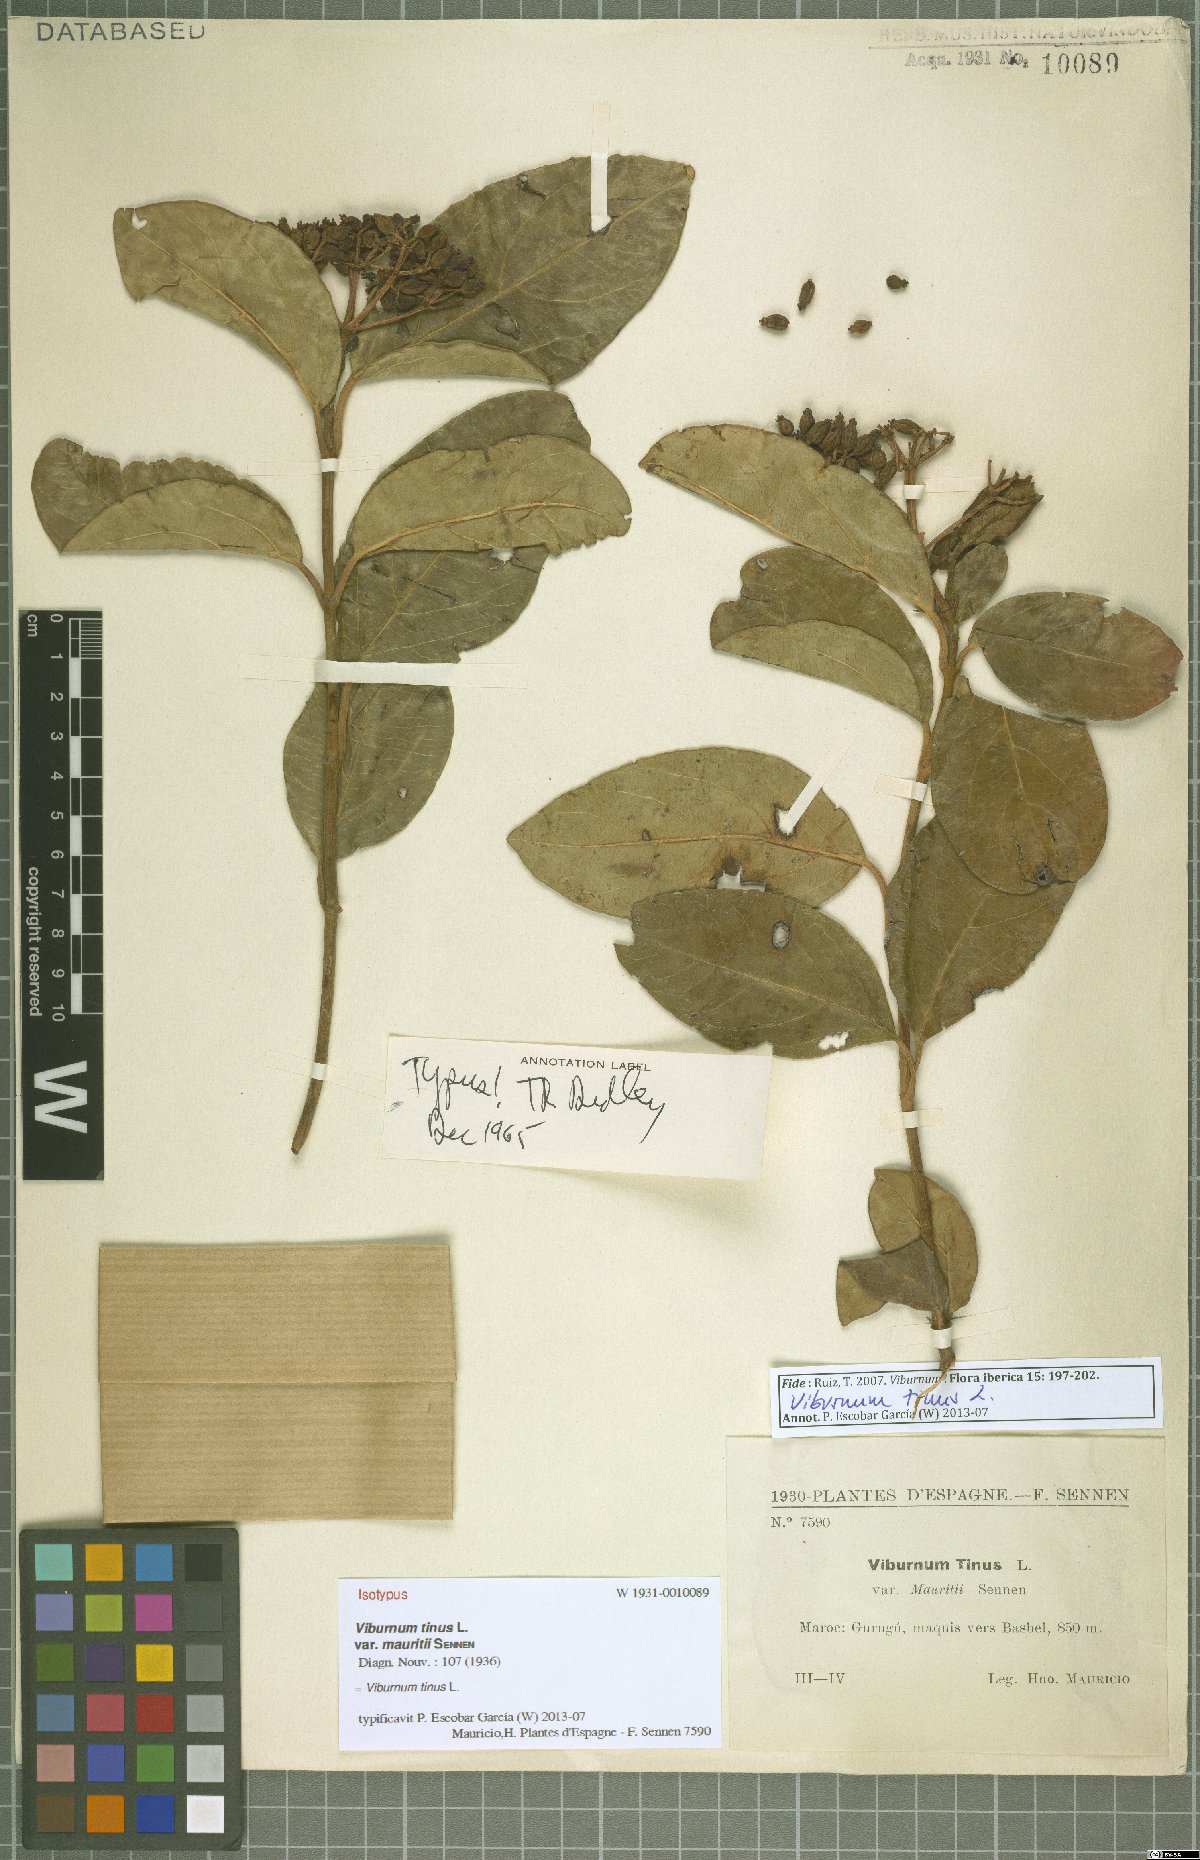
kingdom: Plantae
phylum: Tracheophyta
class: Magnoliopsida
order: Dipsacales
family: Viburnaceae
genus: Viburnum
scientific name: Viburnum tinus
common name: Laurustinus
